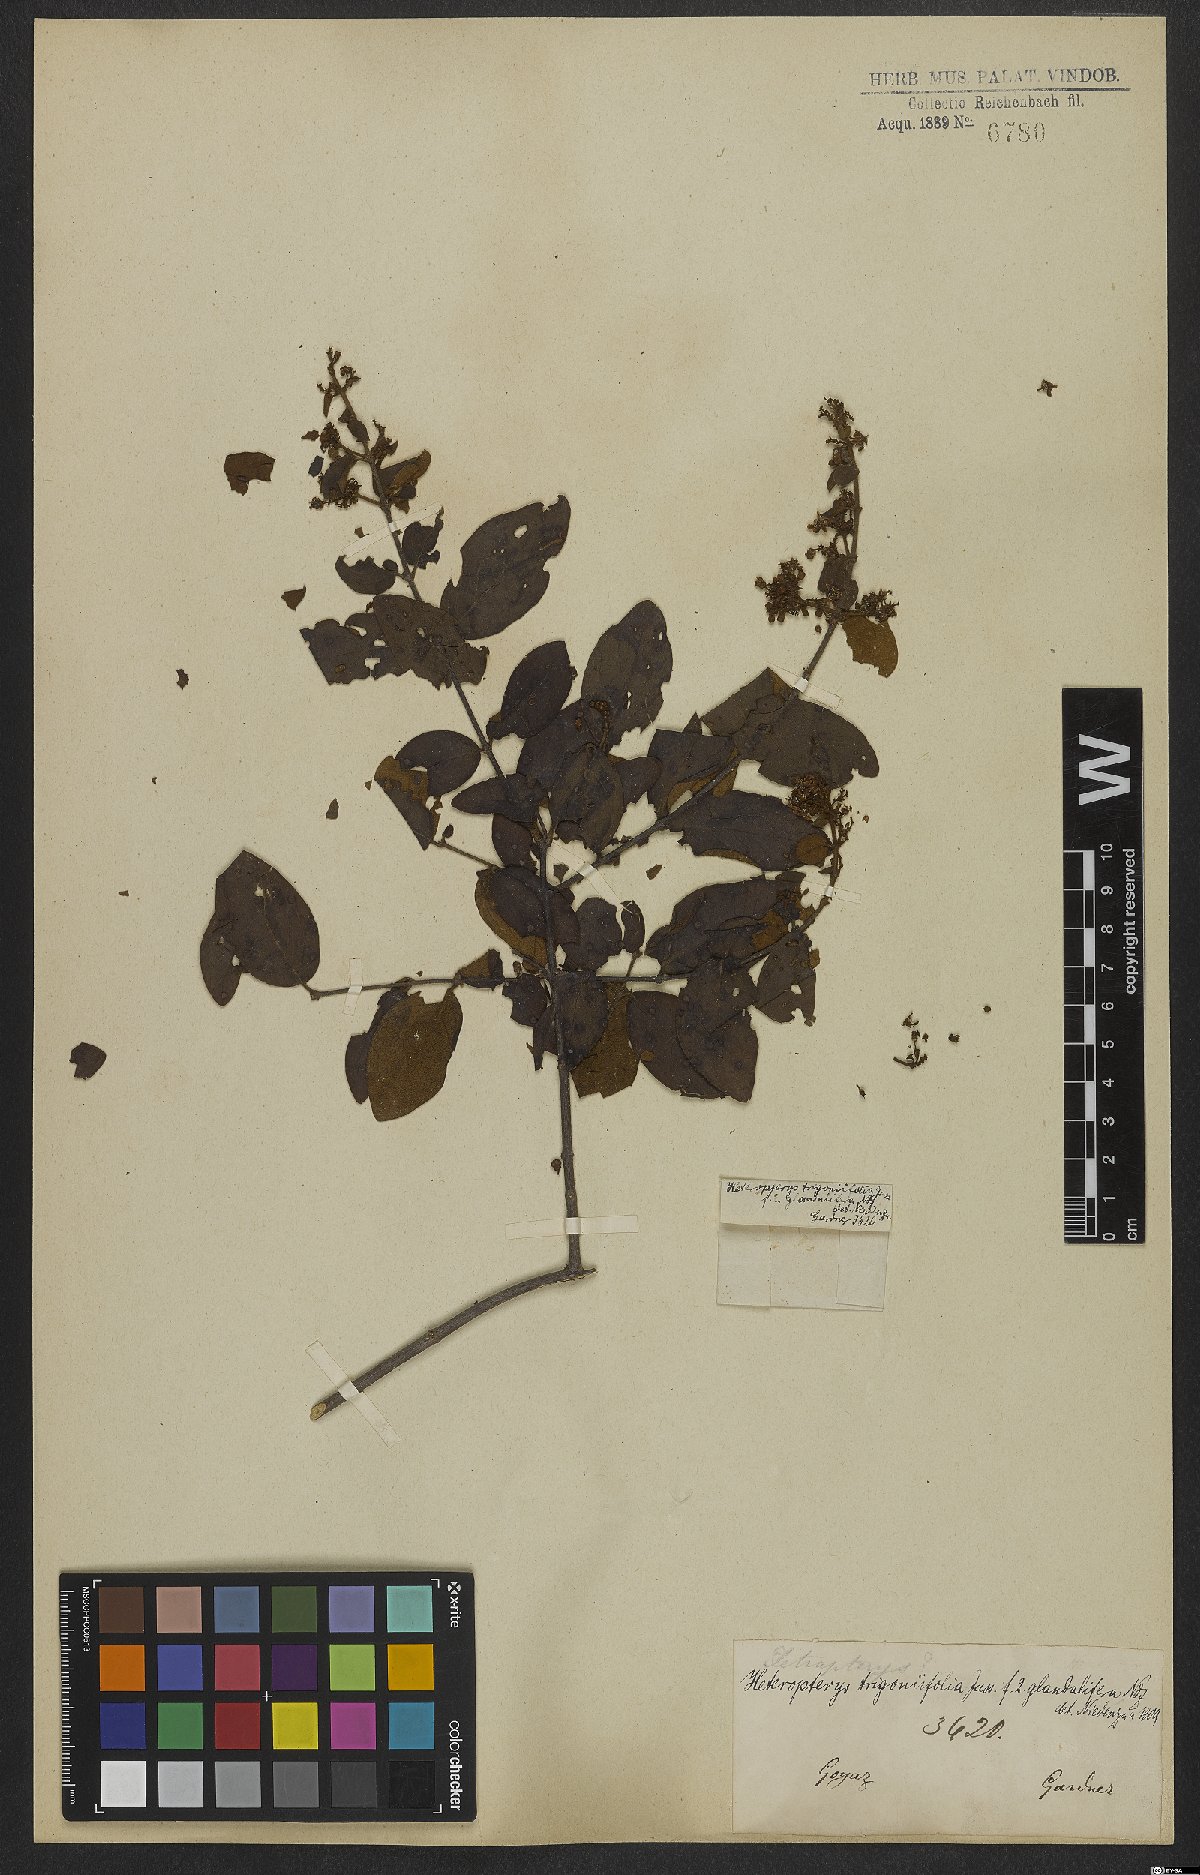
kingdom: Plantae
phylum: Tracheophyta
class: Magnoliopsida
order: Malpighiales
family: Malpighiaceae
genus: Heteropterys
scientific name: Heteropterys trigoniifolia
